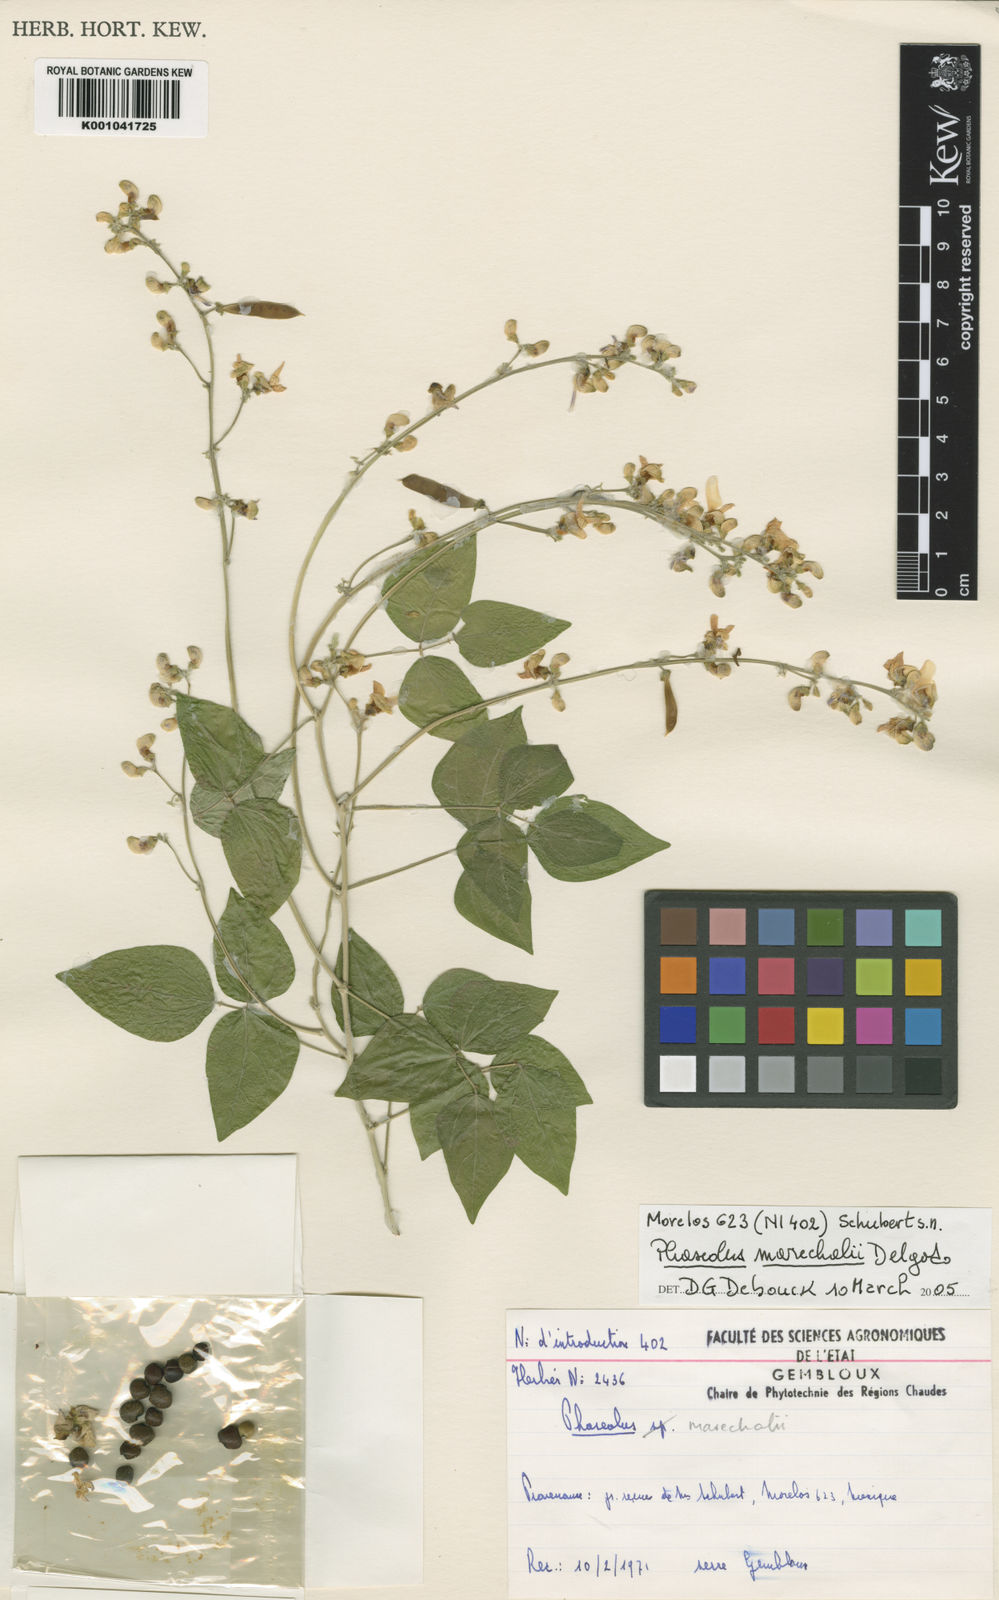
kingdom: Plantae
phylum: Tracheophyta
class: Magnoliopsida
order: Fabales
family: Fabaceae
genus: Phaseolus
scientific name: Phaseolus marechalii
